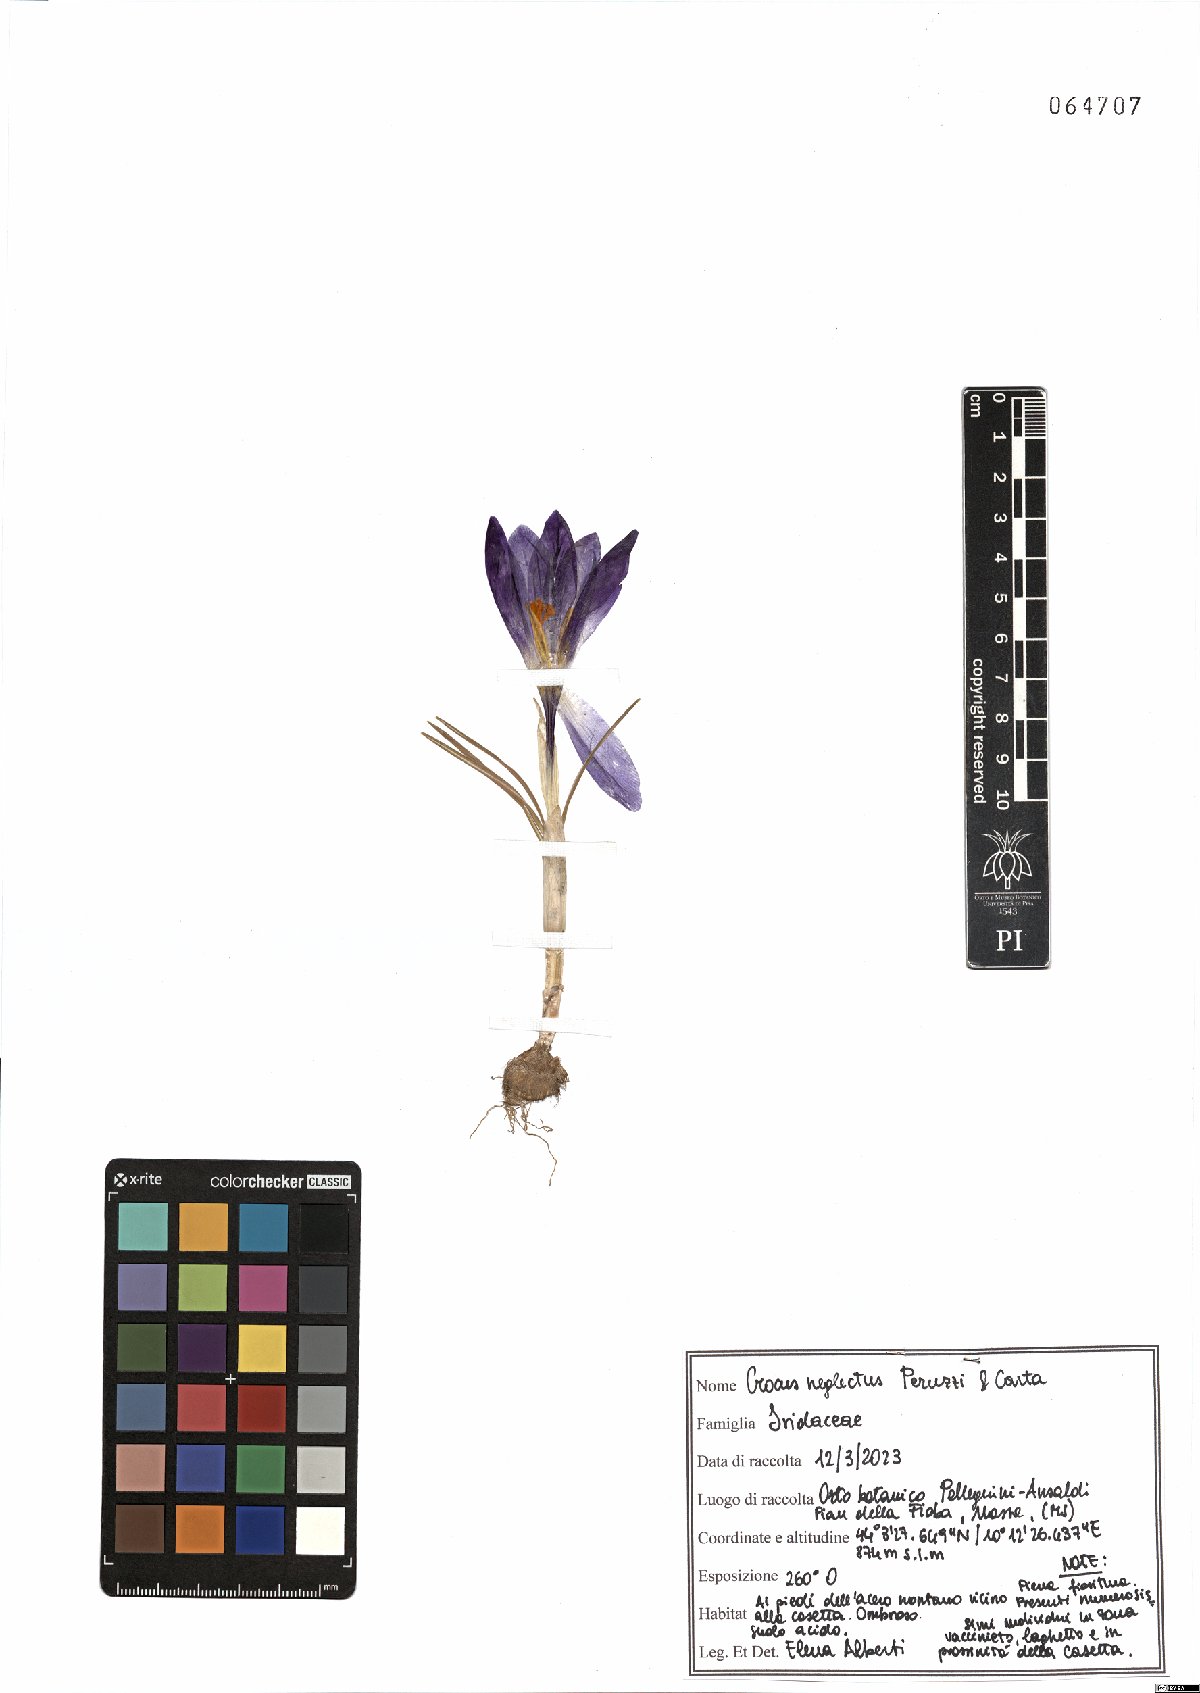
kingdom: Plantae
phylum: Tracheophyta
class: Liliopsida
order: Asparagales
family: Iridaceae
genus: Crocus
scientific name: Crocus neglectus
